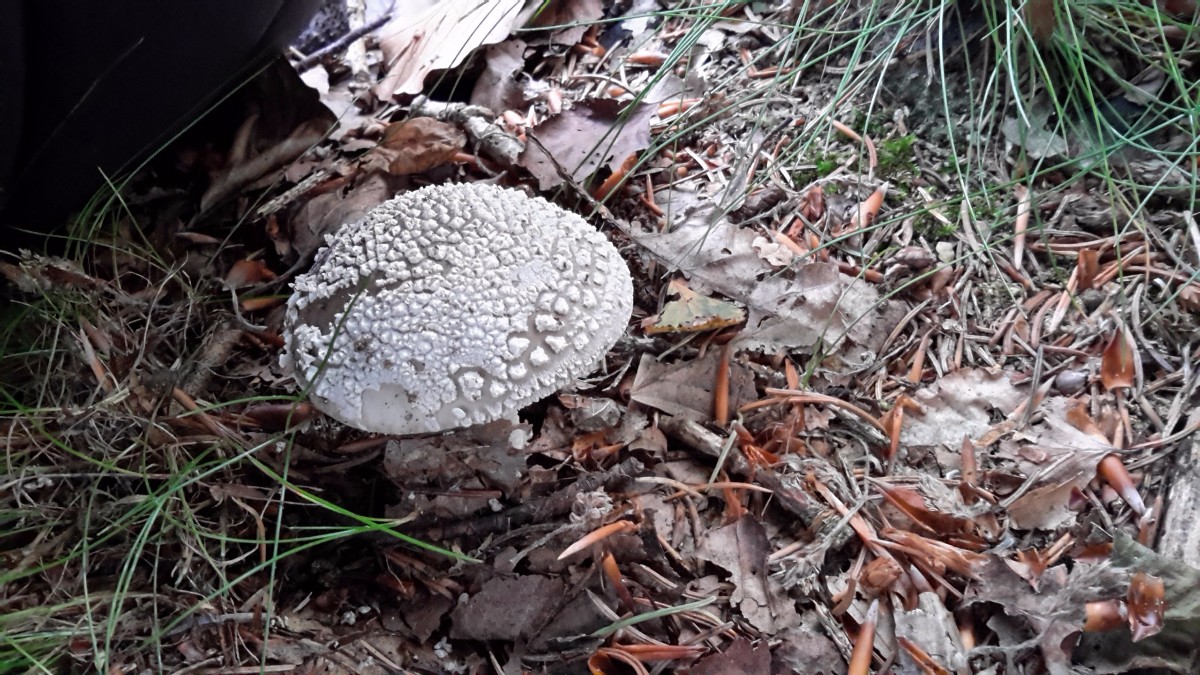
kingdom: Fungi
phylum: Basidiomycota
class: Agaricomycetes
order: Agaricales
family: Amanitaceae
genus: Amanita
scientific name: Amanita
